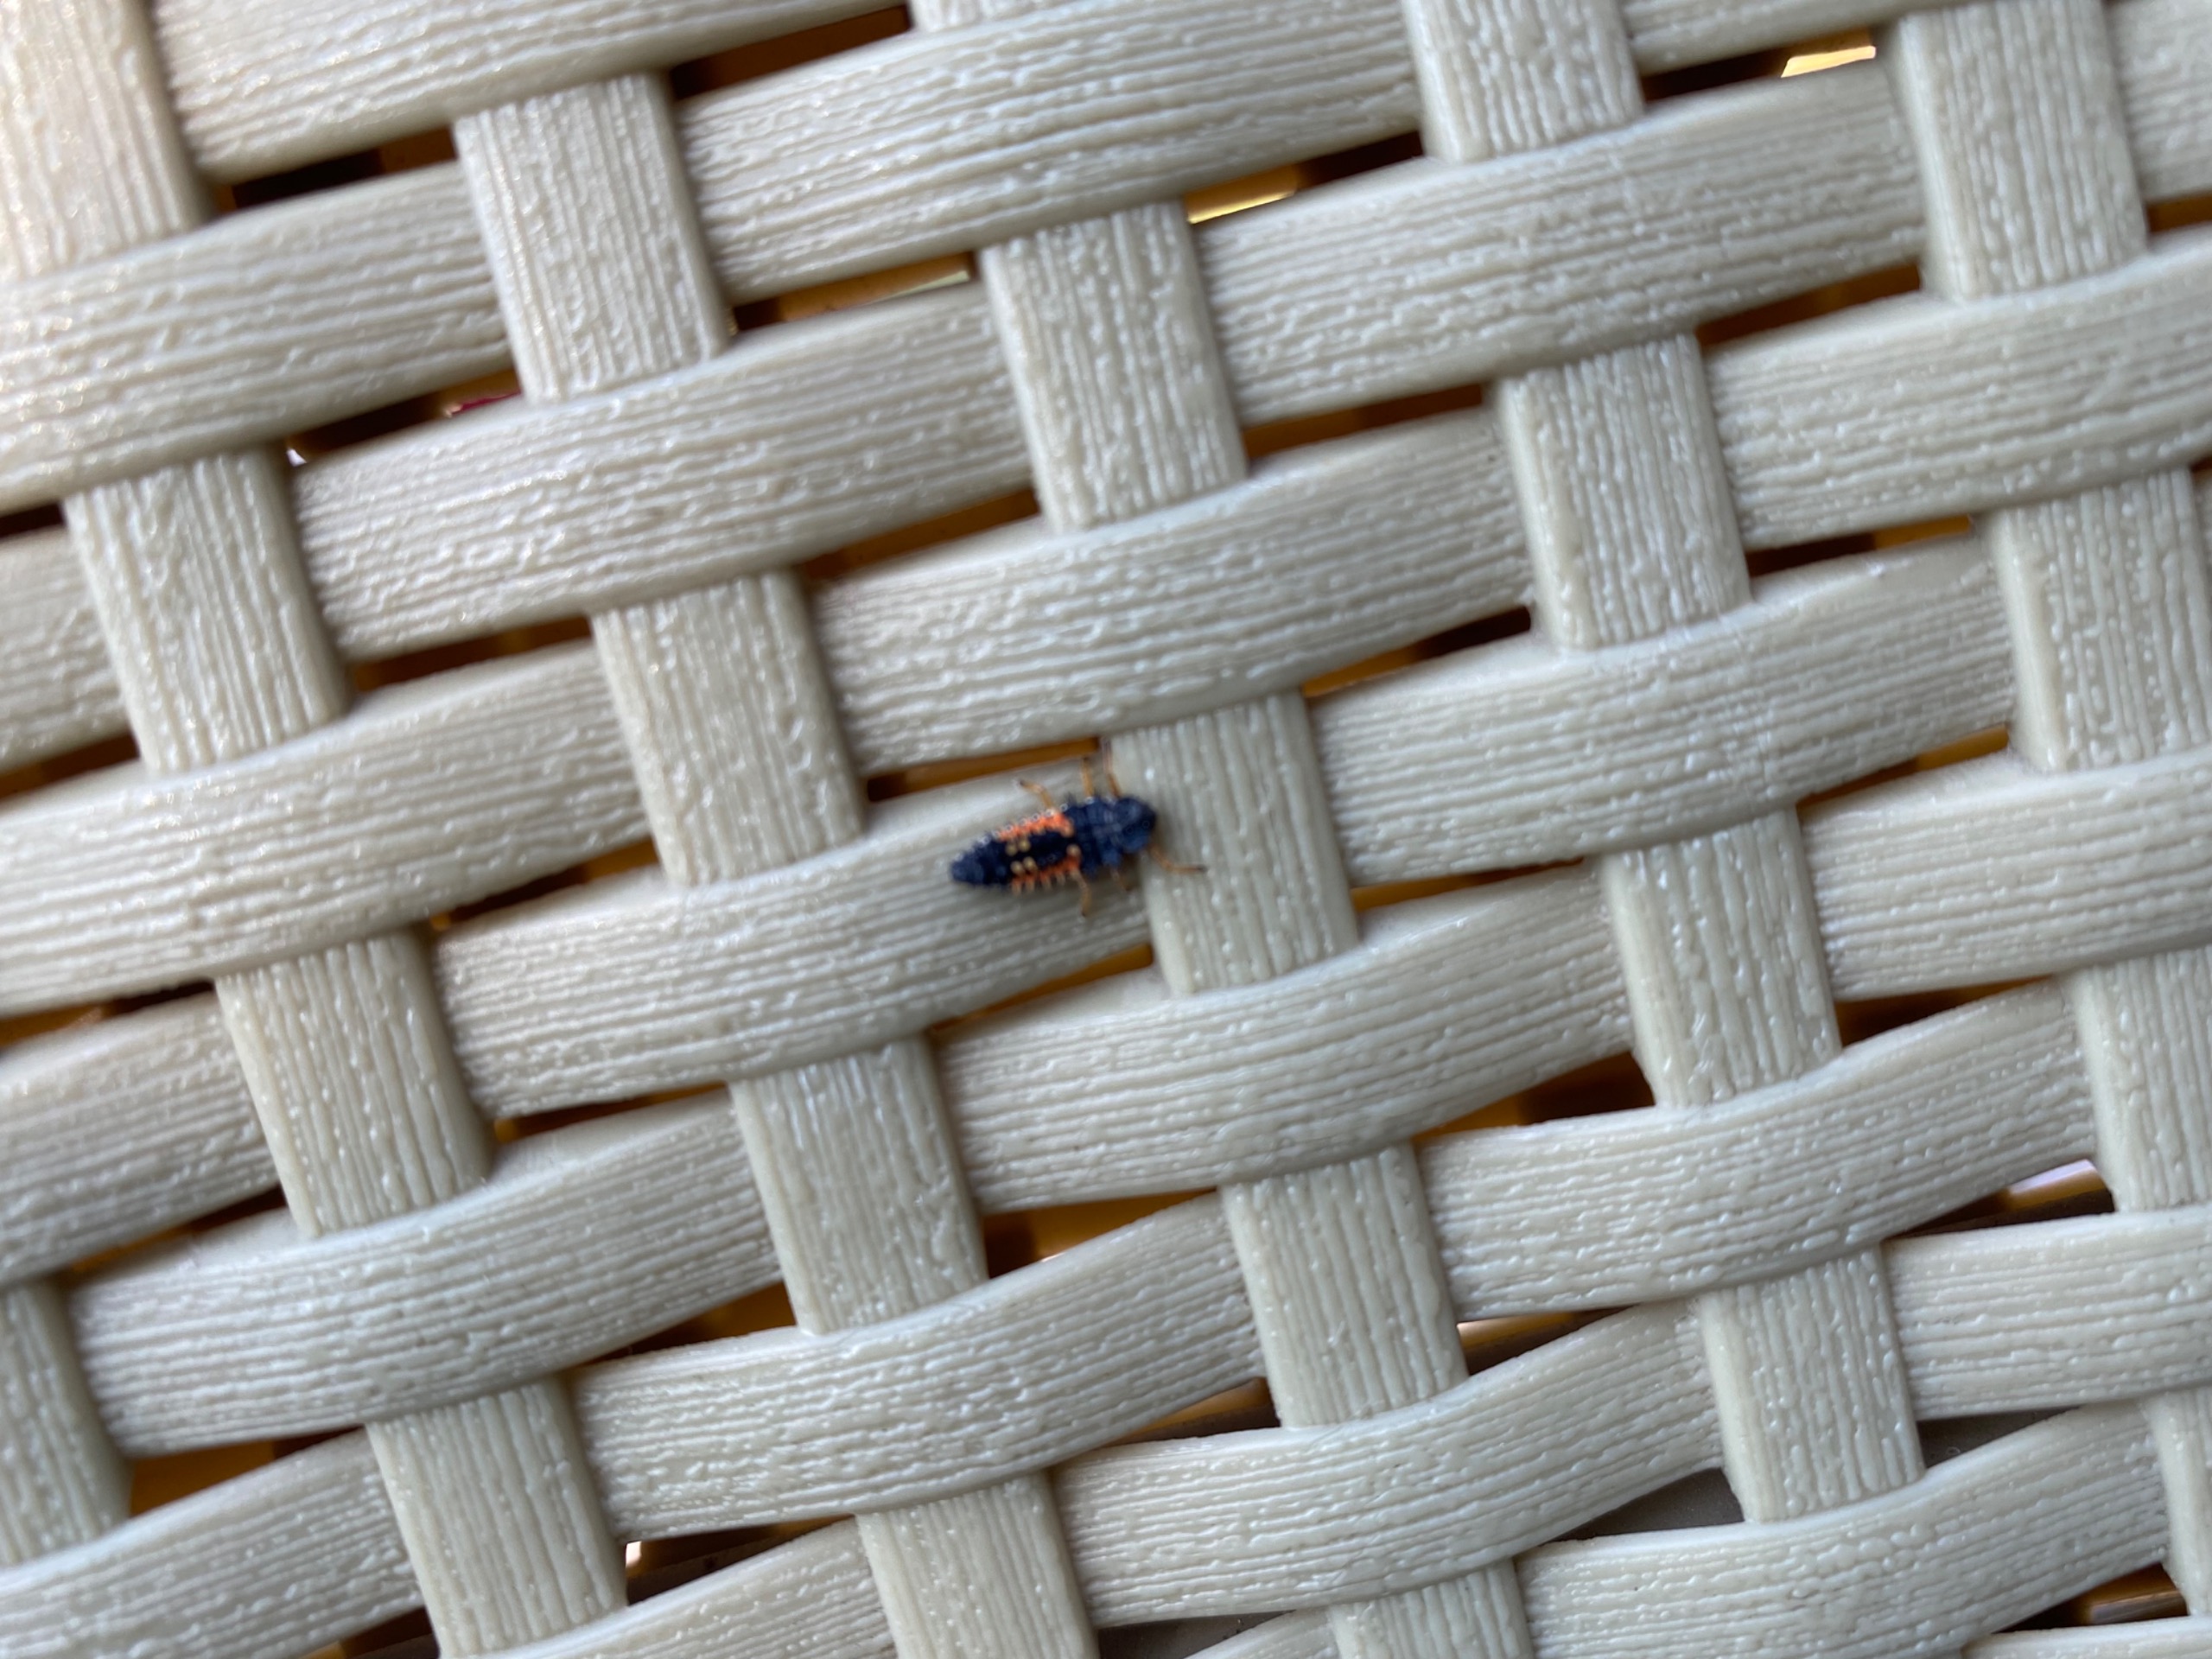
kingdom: Animalia
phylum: Arthropoda
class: Insecta
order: Coleoptera
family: Coccinellidae
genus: Harmonia
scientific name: Harmonia axyridis
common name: Harlekinmariehøne
